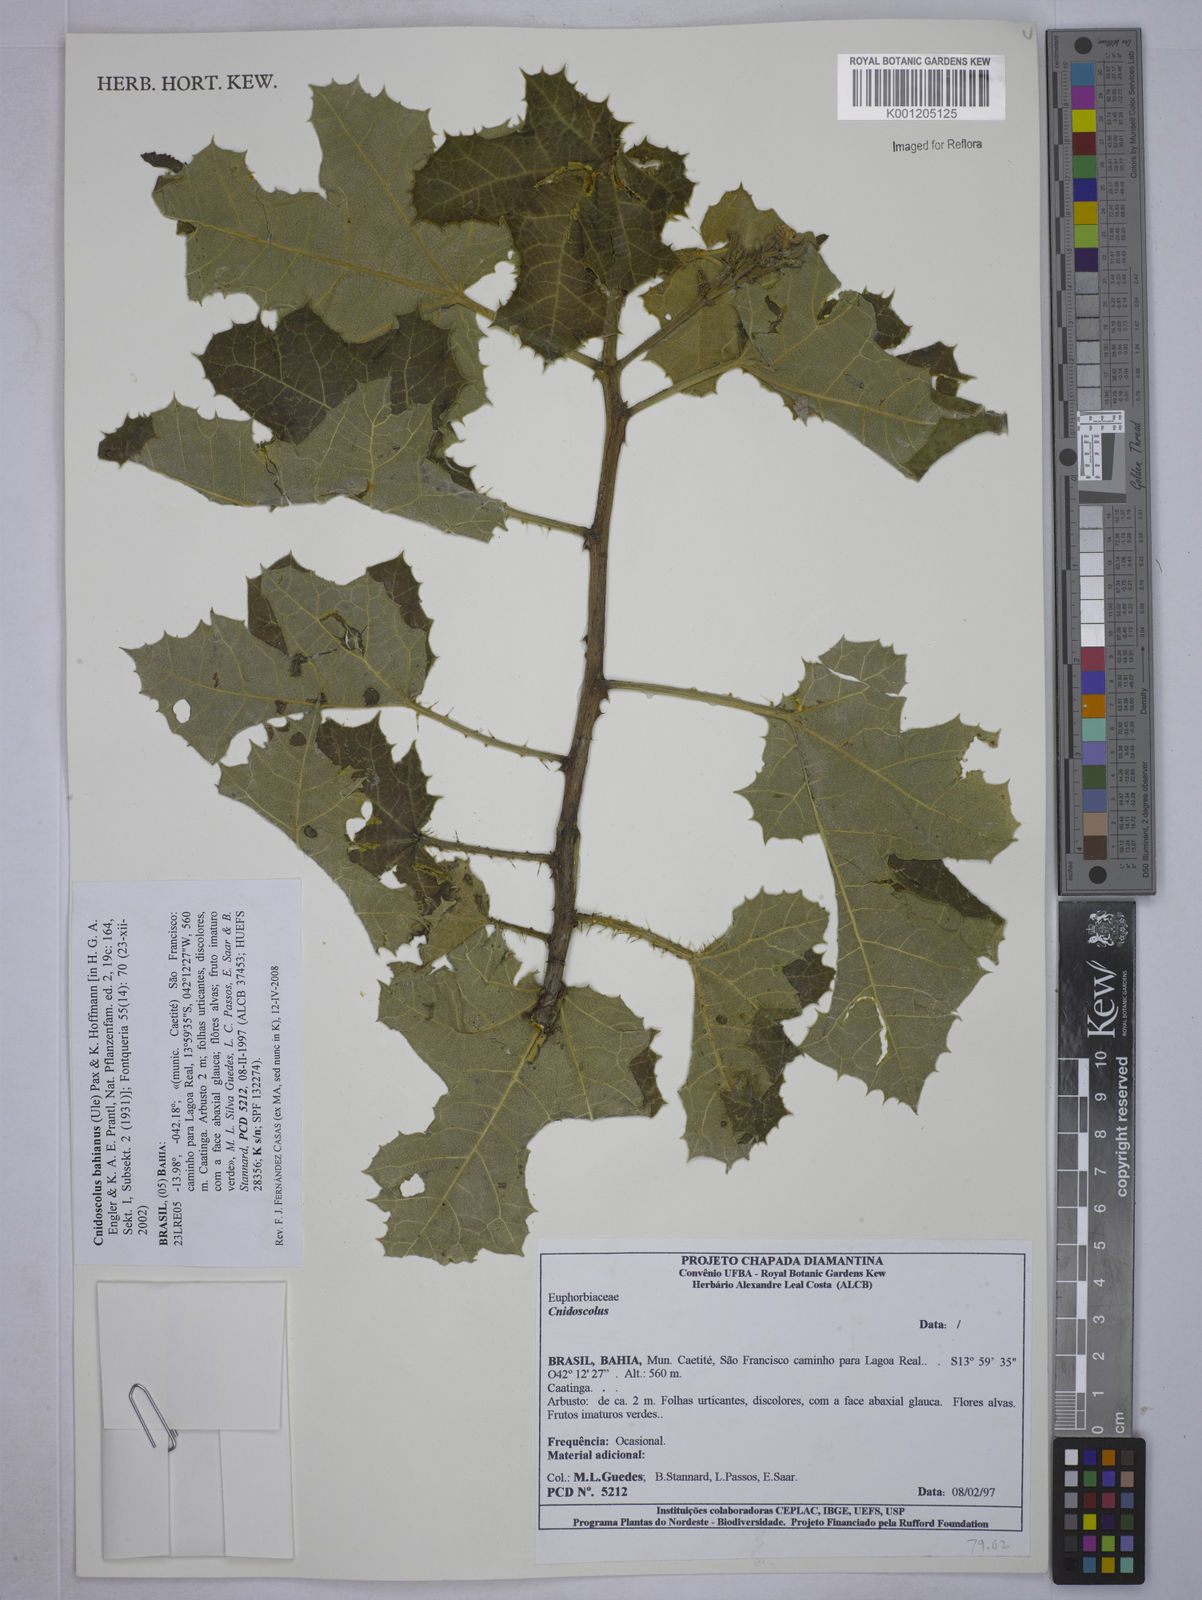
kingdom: Plantae
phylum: Tracheophyta
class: Magnoliopsida
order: Malpighiales
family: Euphorbiaceae
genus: Cnidoscolus
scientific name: Cnidoscolus bahianus
